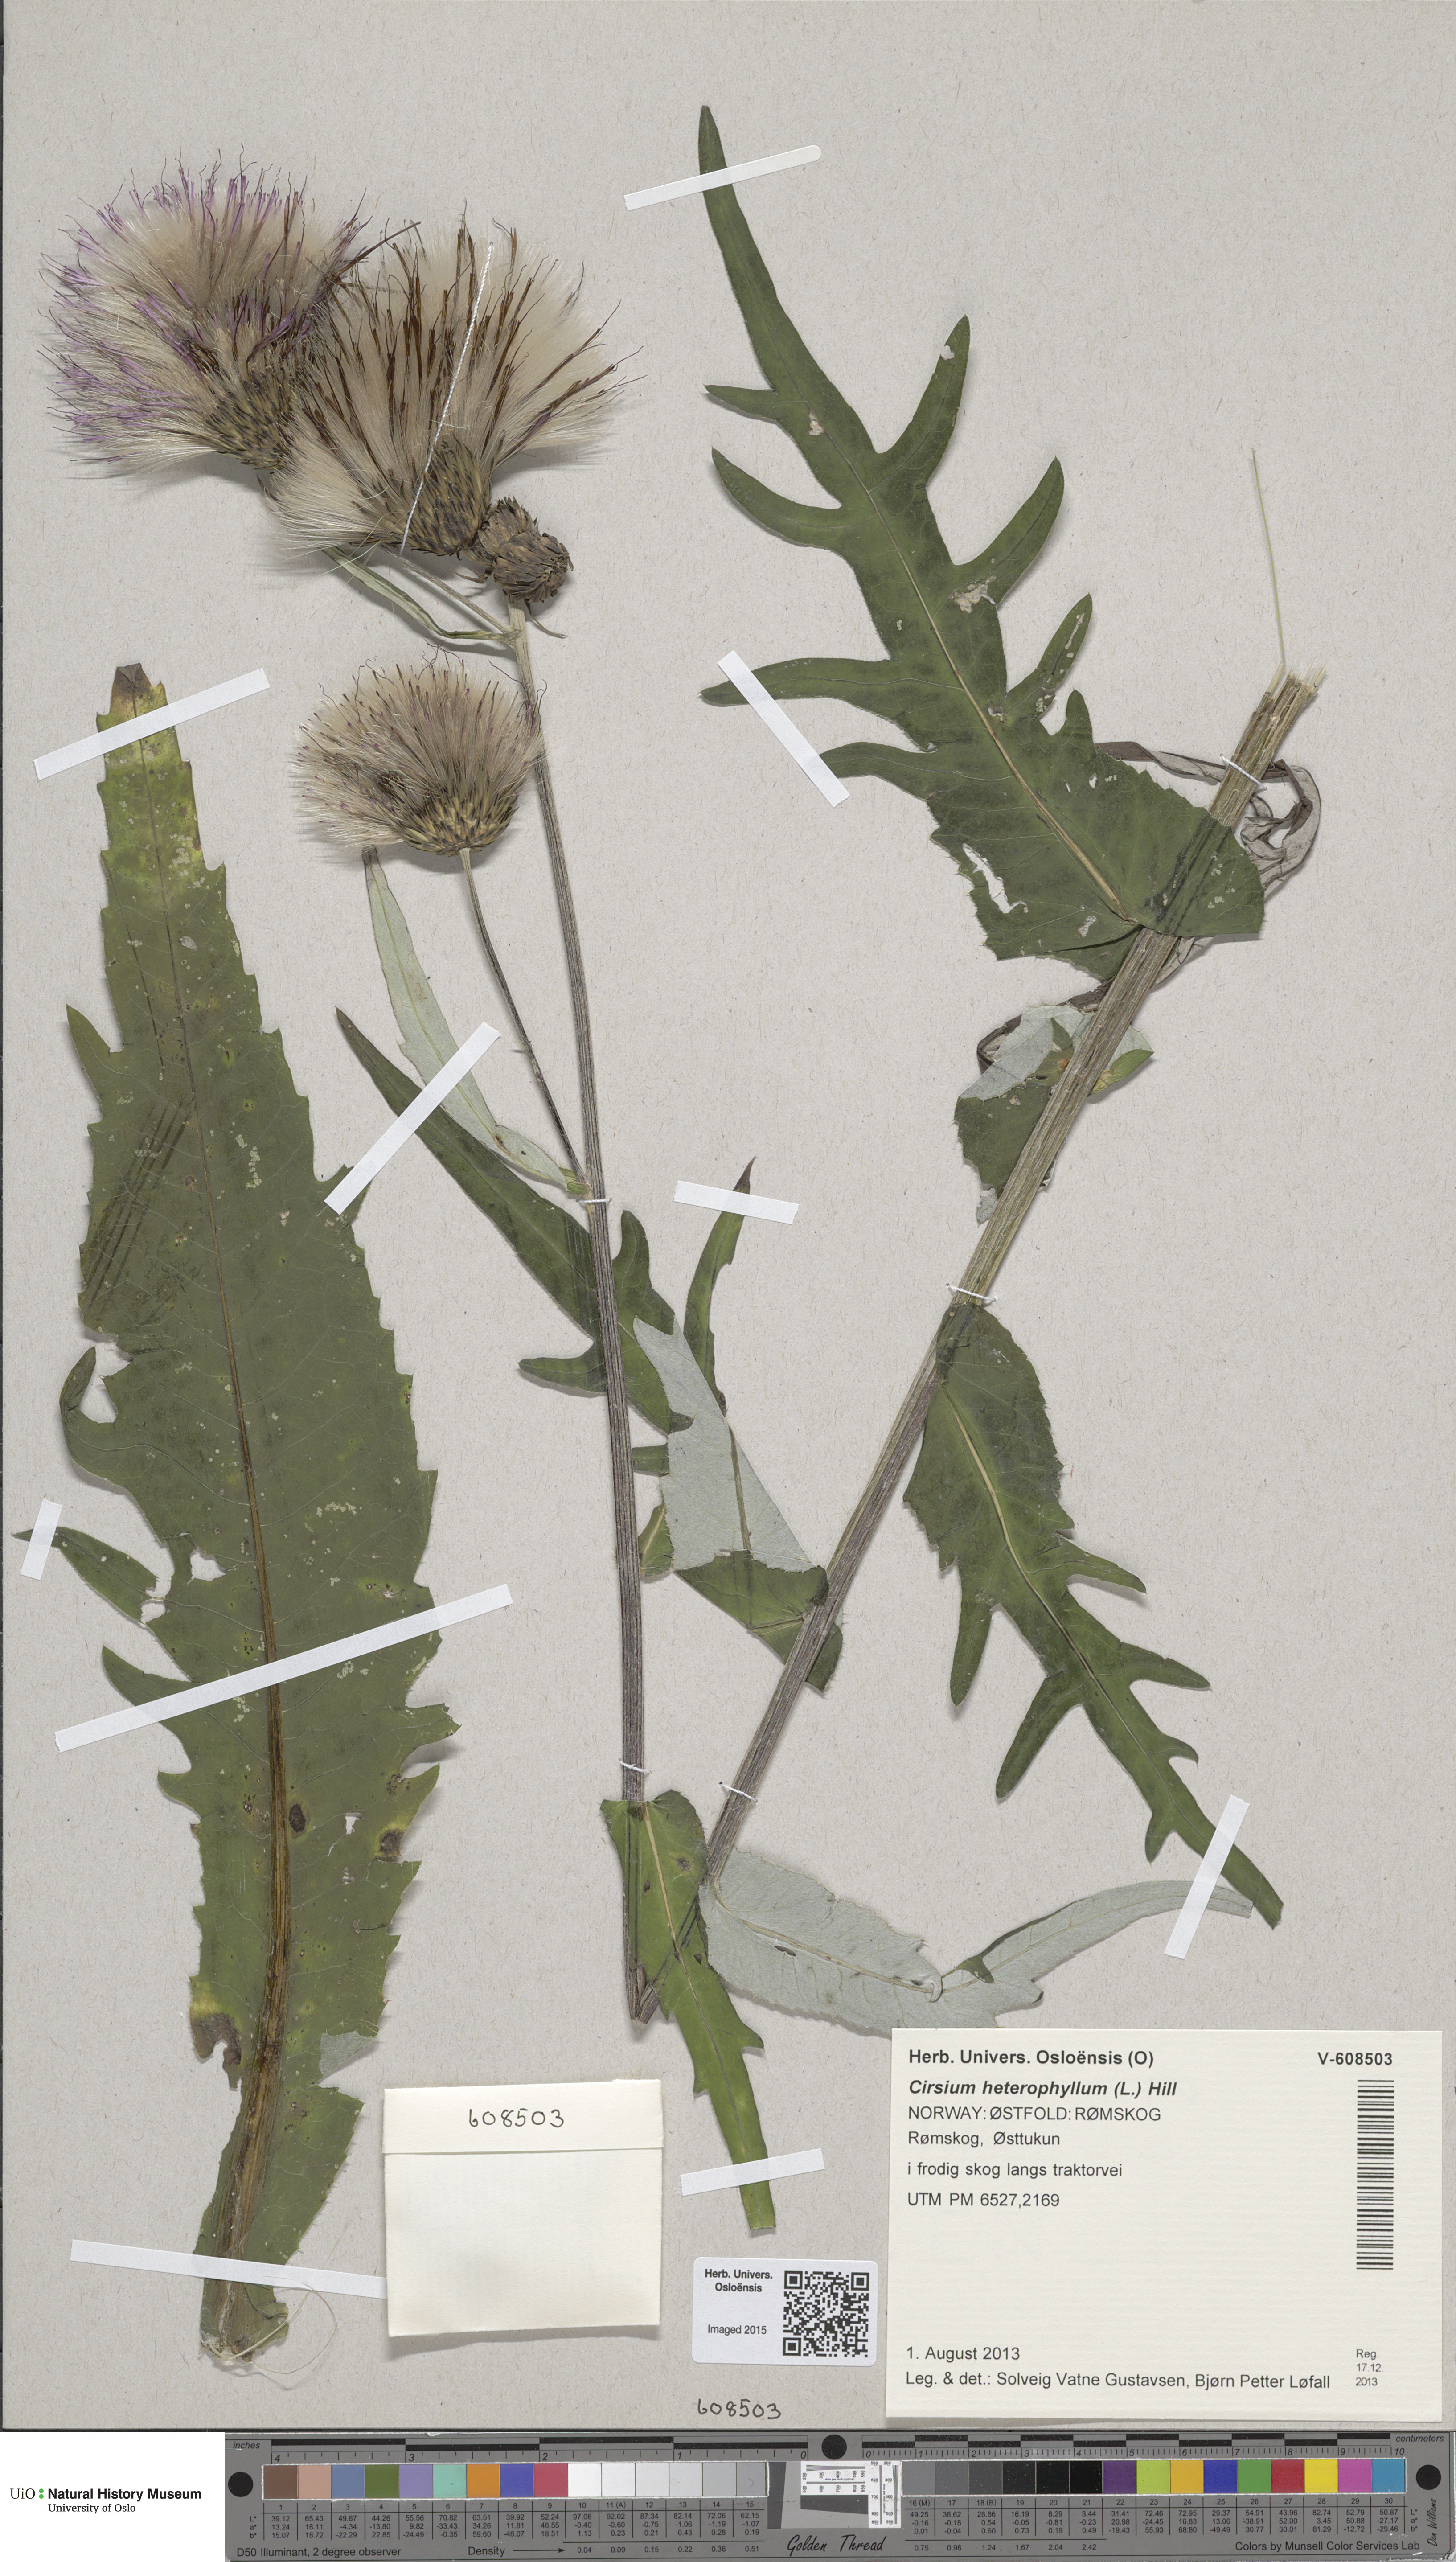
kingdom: Plantae
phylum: Tracheophyta
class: Magnoliopsida
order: Asterales
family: Asteraceae
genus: Cirsium
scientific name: Cirsium heterophyllum
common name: Melancholy thistle
